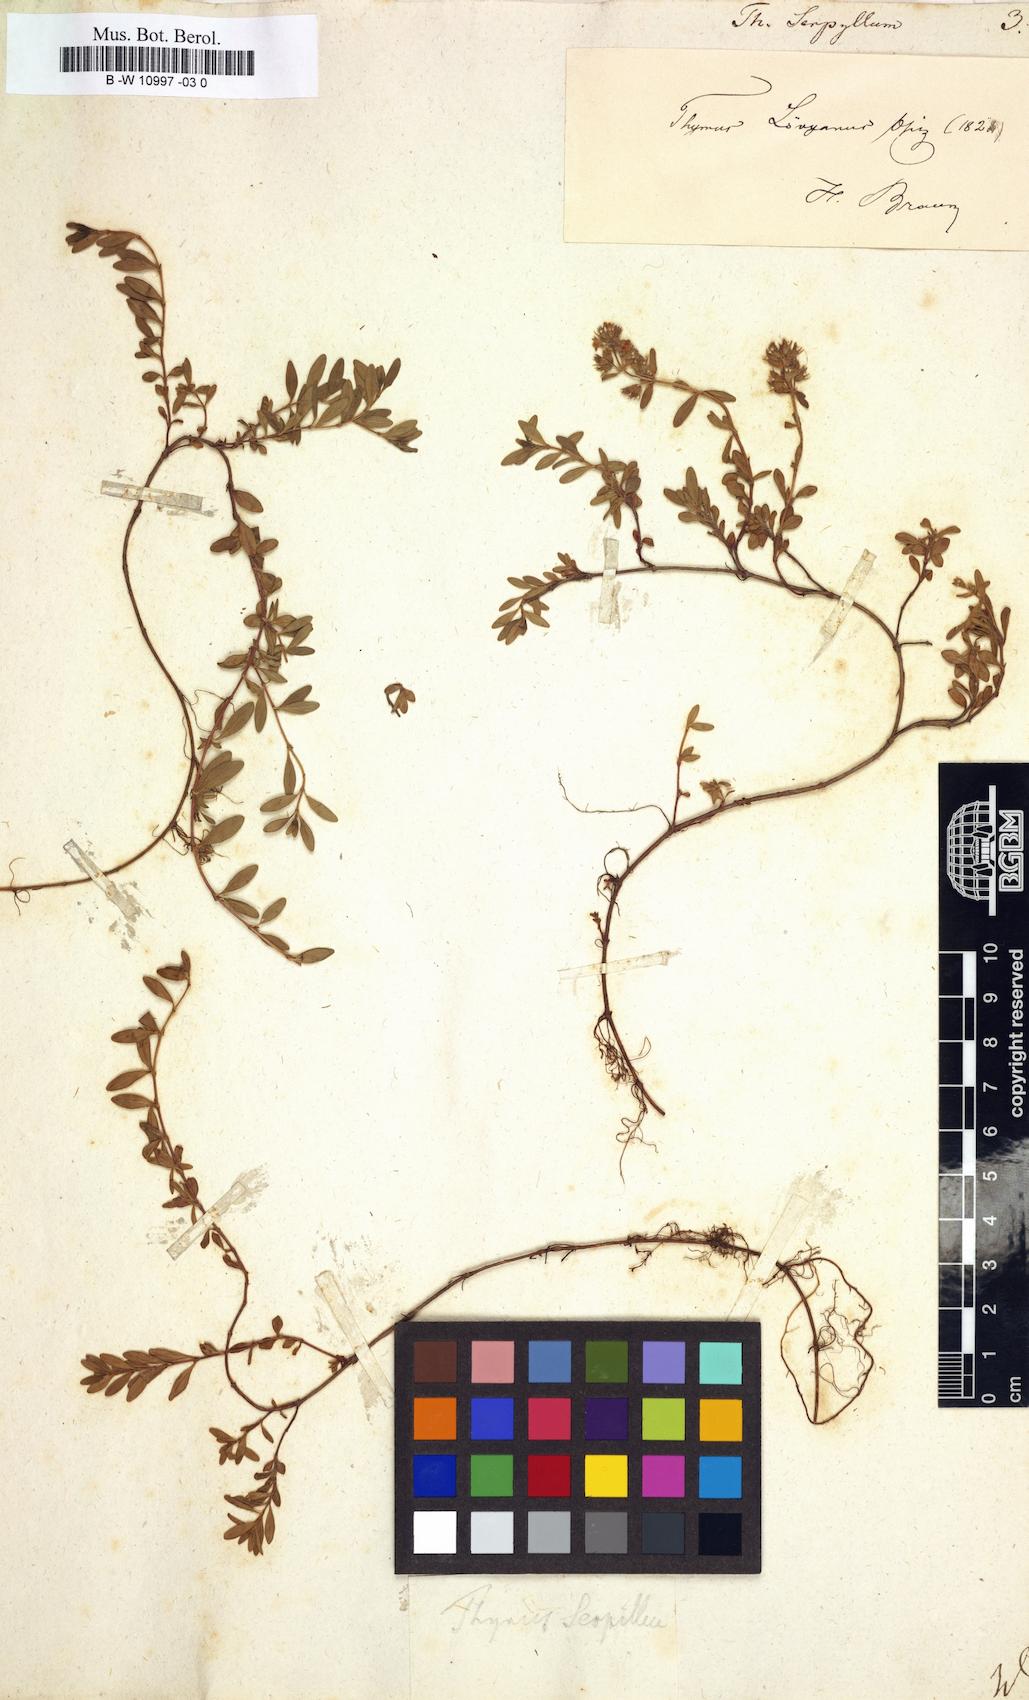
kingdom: Plantae
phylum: Tracheophyta
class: Magnoliopsida
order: Lamiales
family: Lamiaceae
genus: Thymus
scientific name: Thymus serpyllum
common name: Breckland thyme
